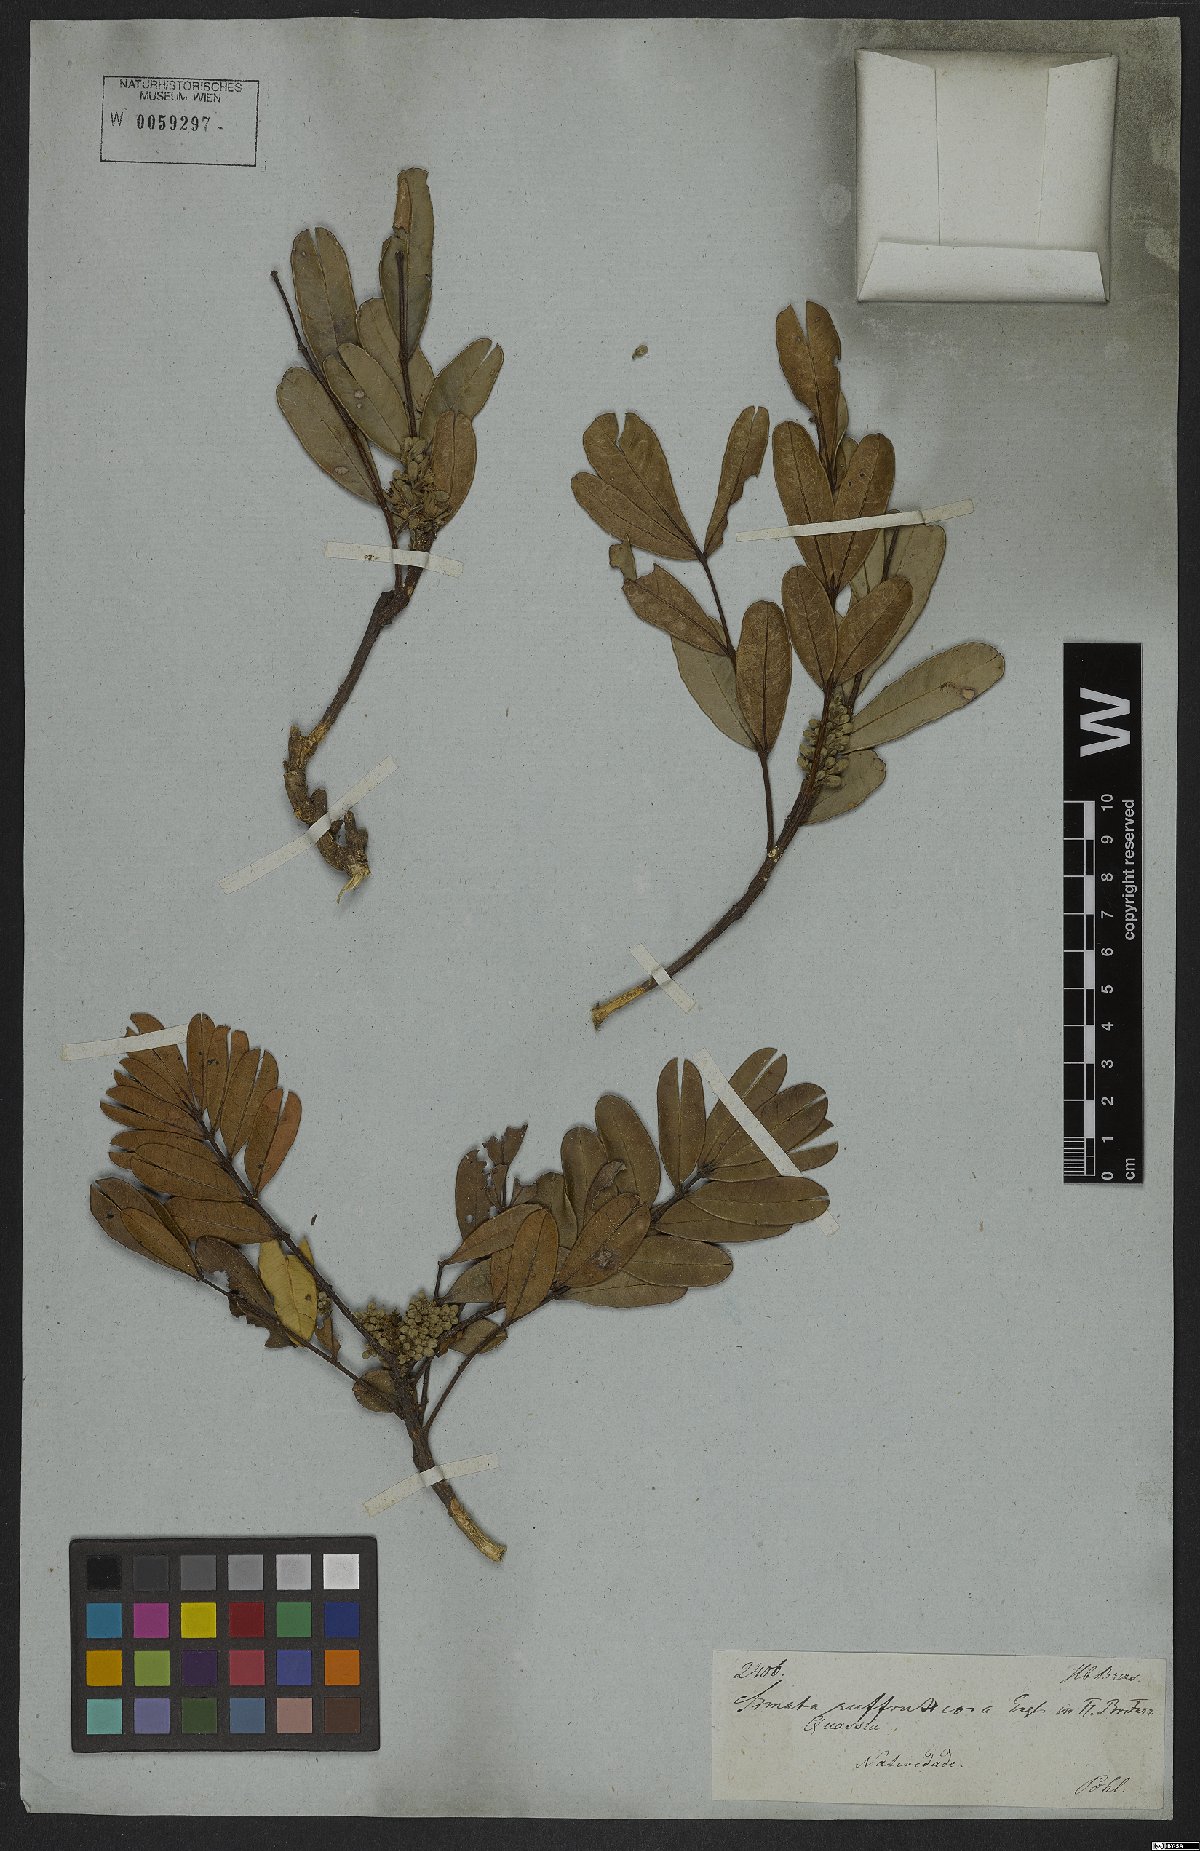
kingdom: Plantae
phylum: Tracheophyta
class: Magnoliopsida
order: Sapindales
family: Simaroubaceae
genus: Homalolepis
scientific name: Homalolepis suffruticosa
